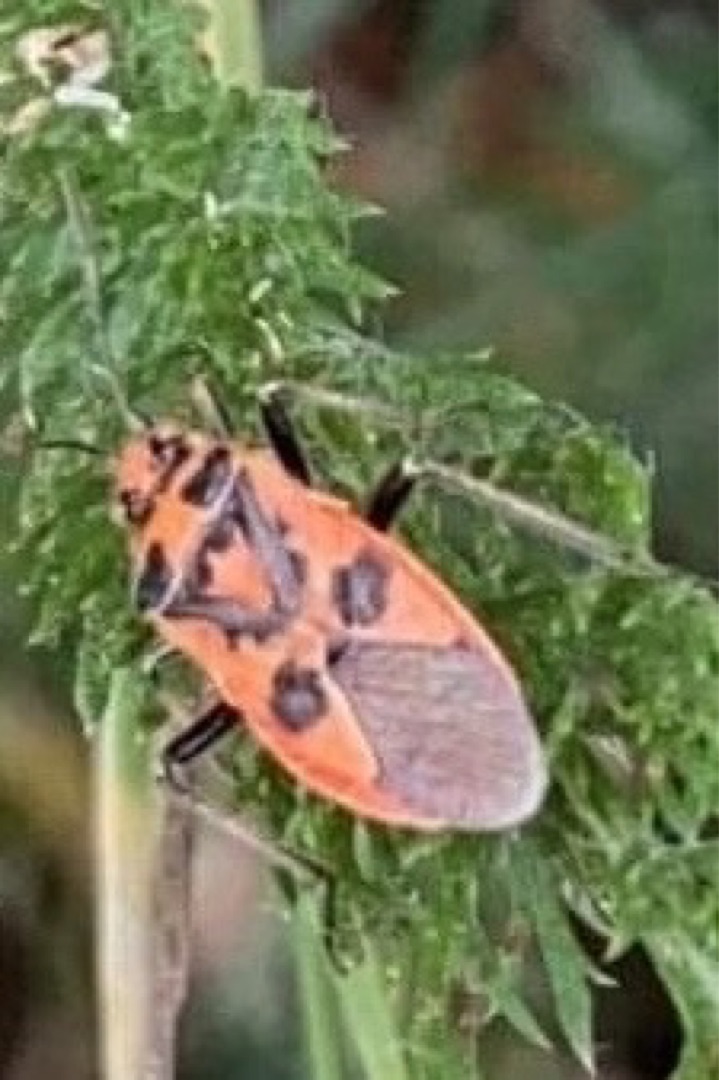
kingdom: Animalia
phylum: Arthropoda
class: Insecta
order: Hemiptera
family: Rhopalidae
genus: Corizus
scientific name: Corizus hyoscyami
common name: Rød kanttæge
